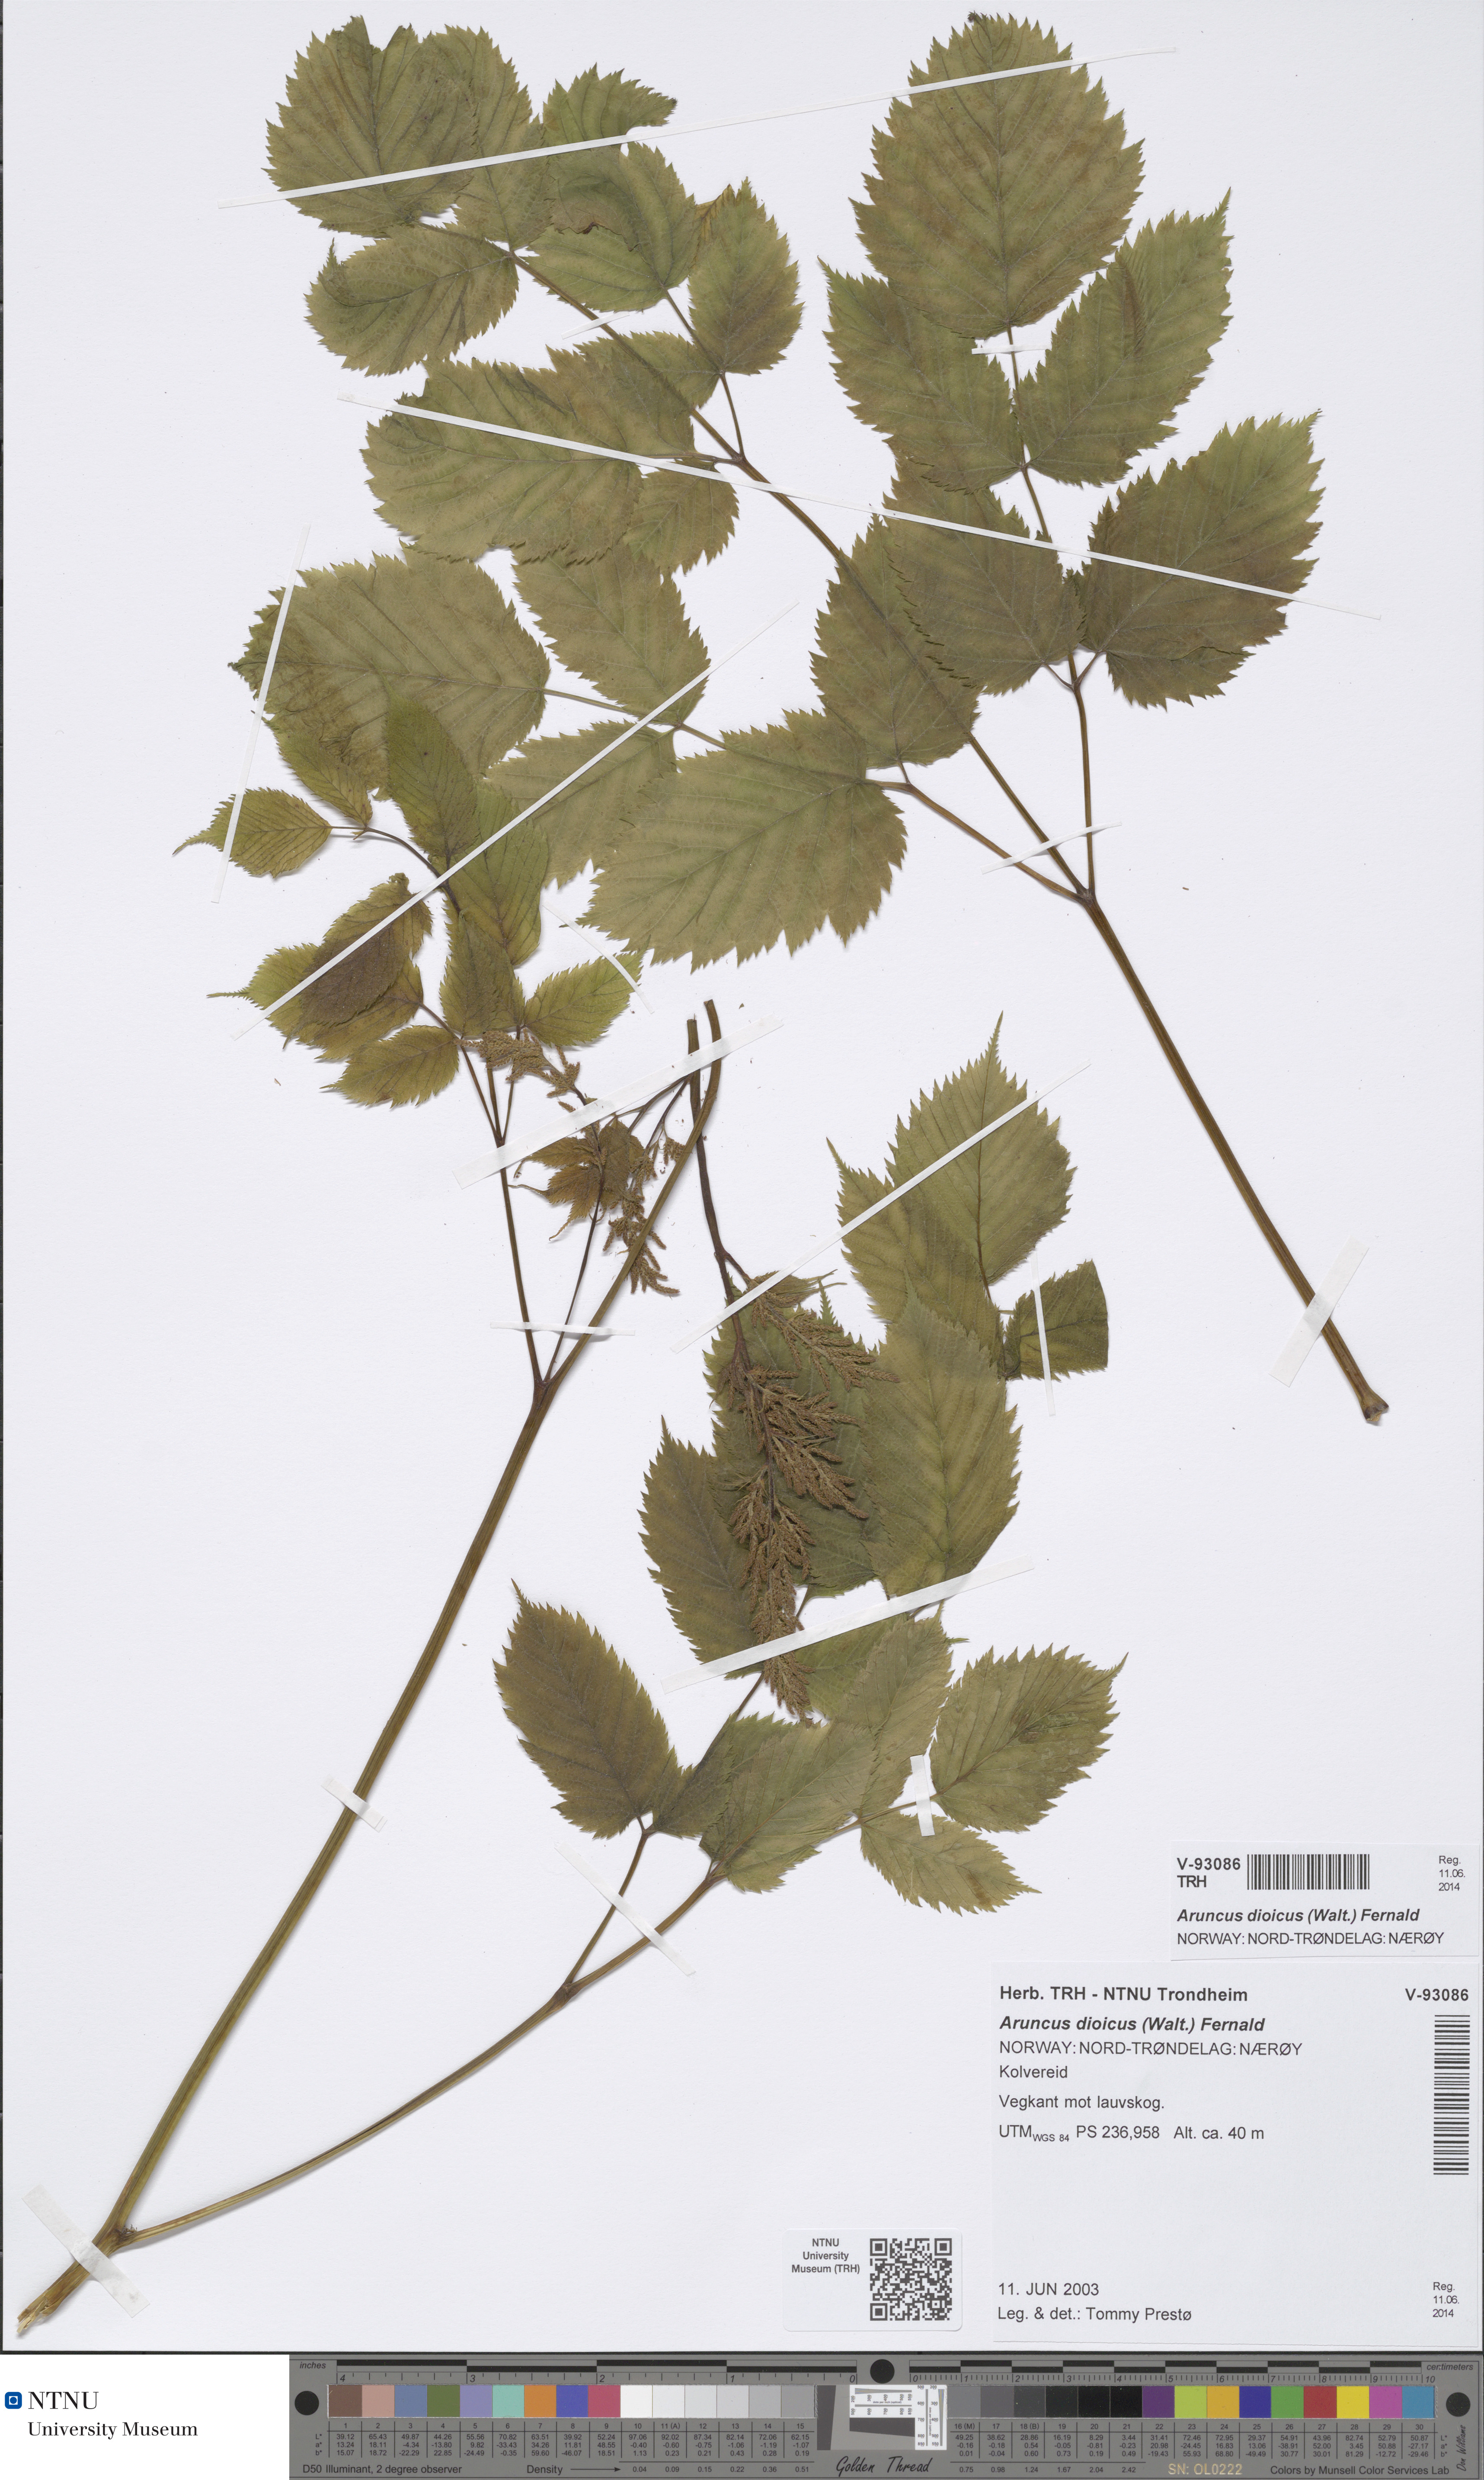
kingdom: Plantae
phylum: Tracheophyta
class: Magnoliopsida
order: Rosales
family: Rosaceae
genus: Aruncus
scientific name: Aruncus dioicus
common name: Buck's-beard
